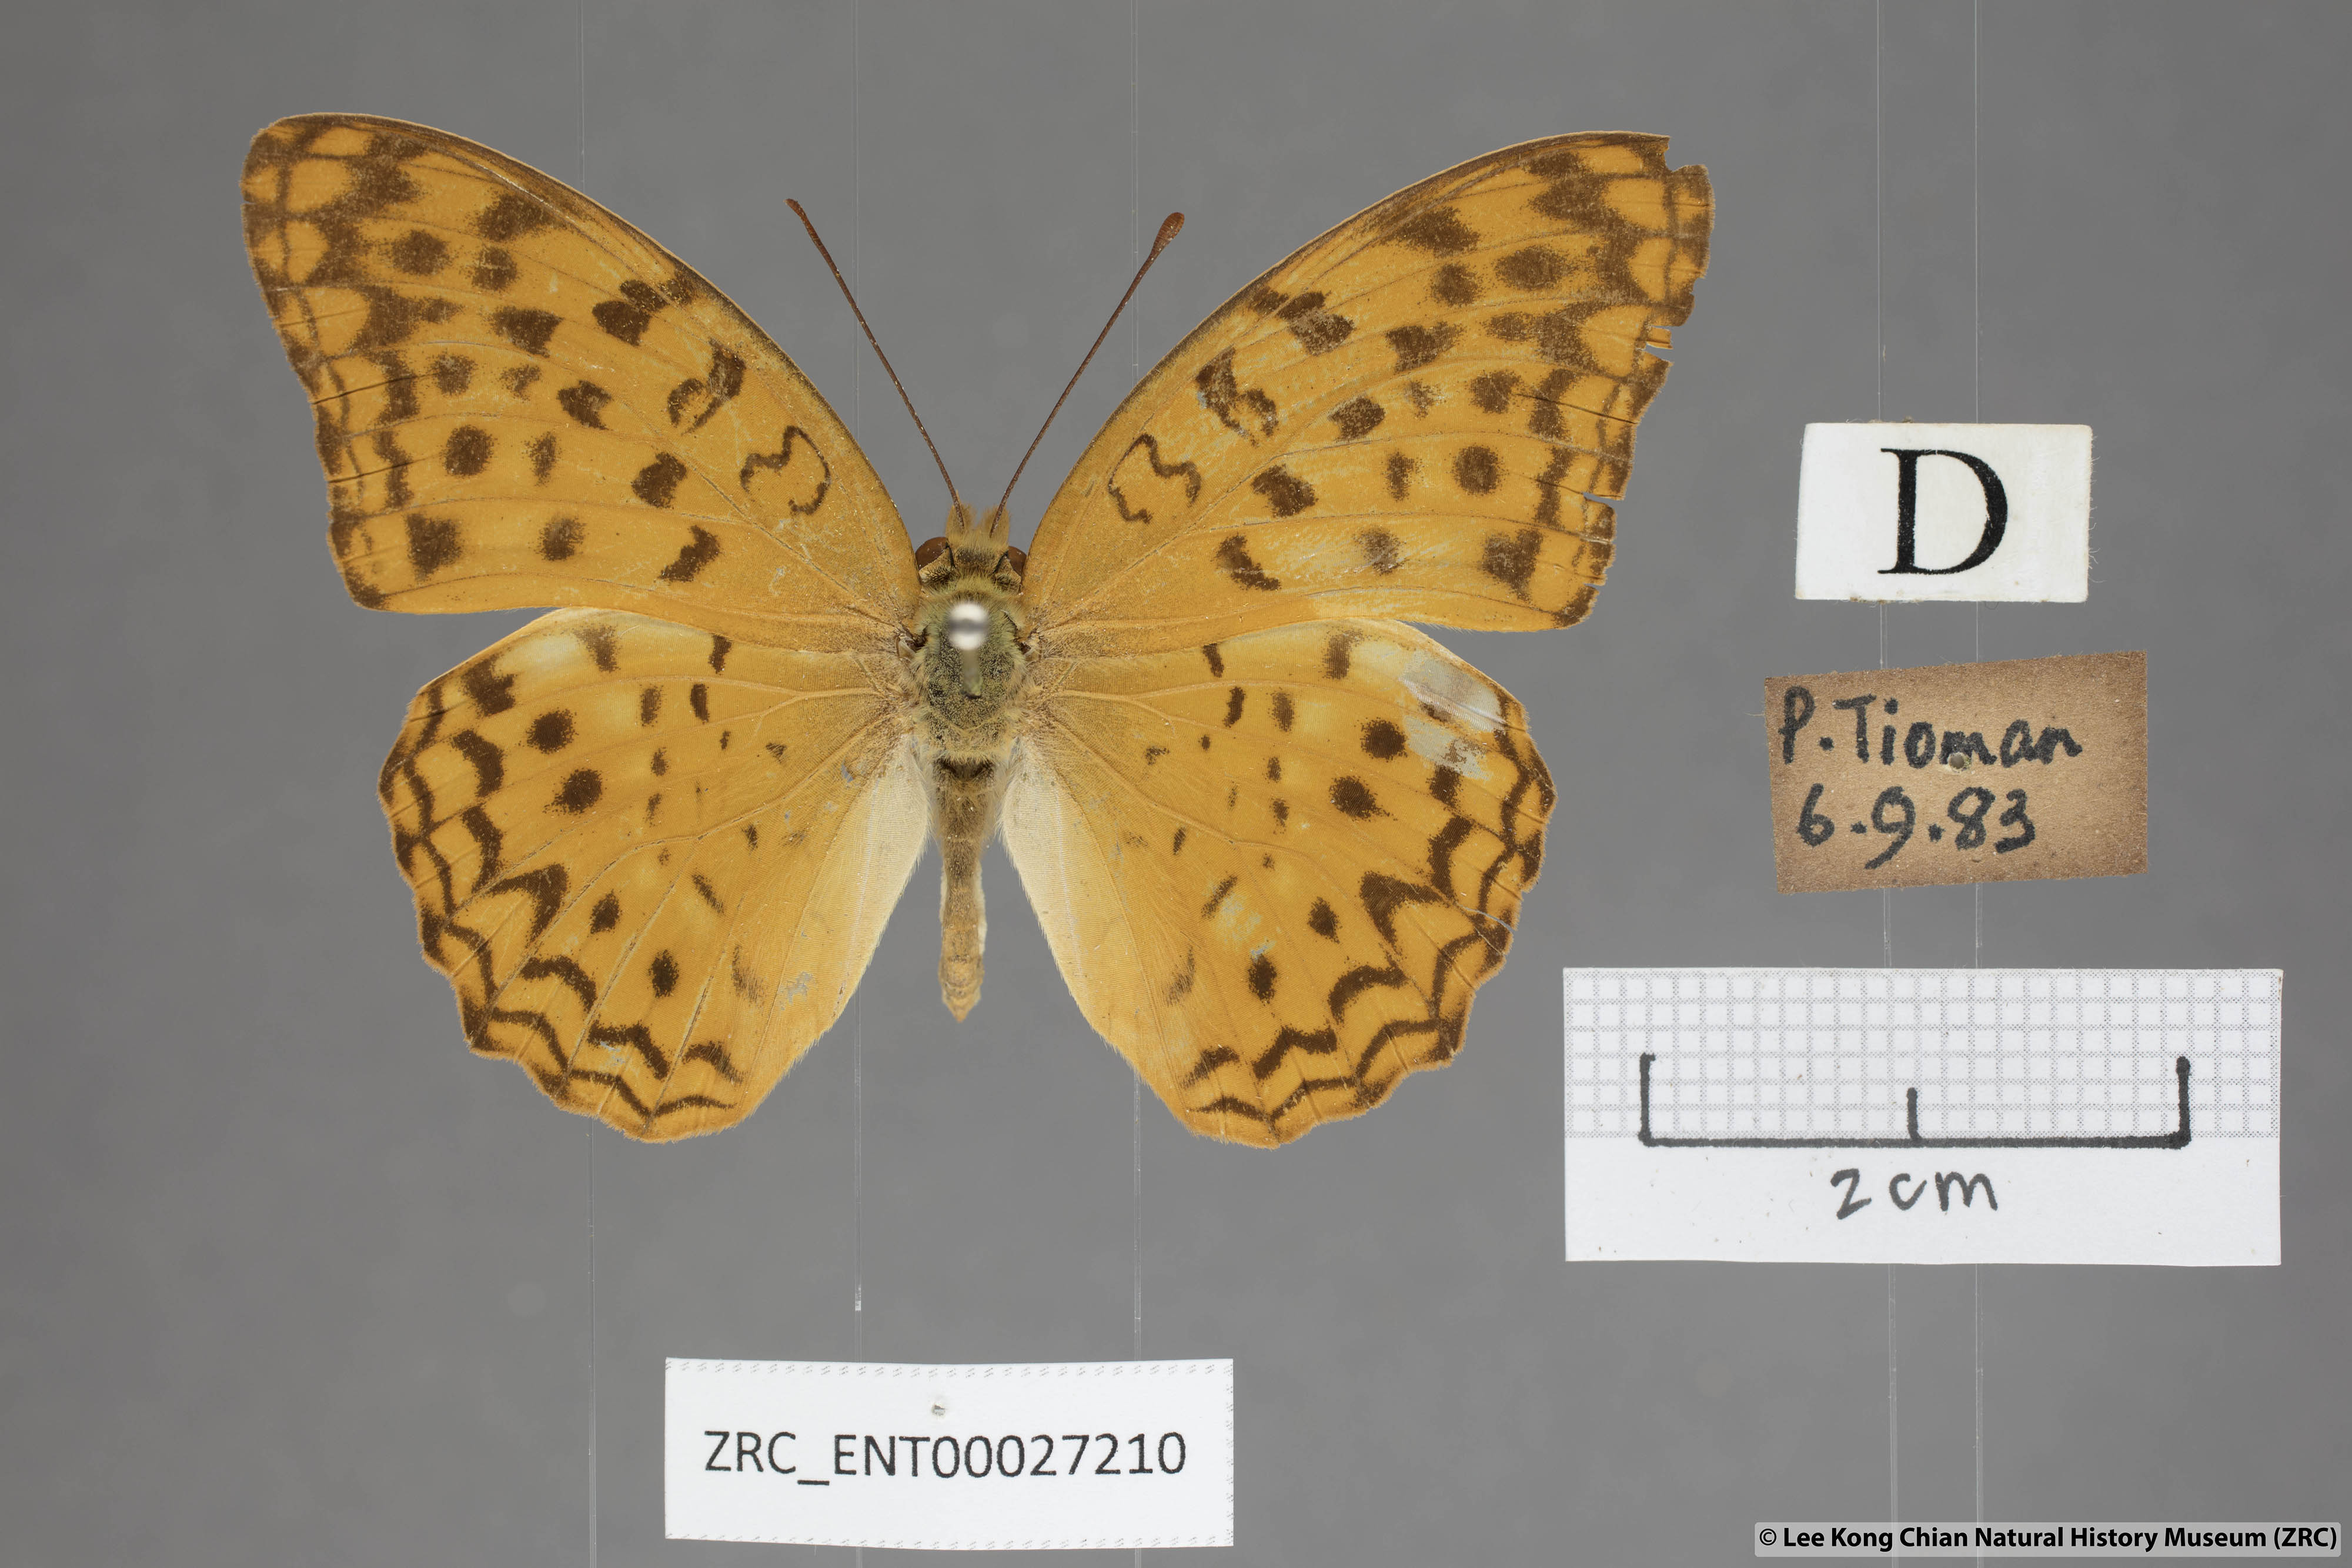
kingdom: Animalia
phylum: Arthropoda
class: Insecta
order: Lepidoptera
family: Nymphalidae
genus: Phalanta
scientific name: Phalanta alcippe
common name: Small leopard
